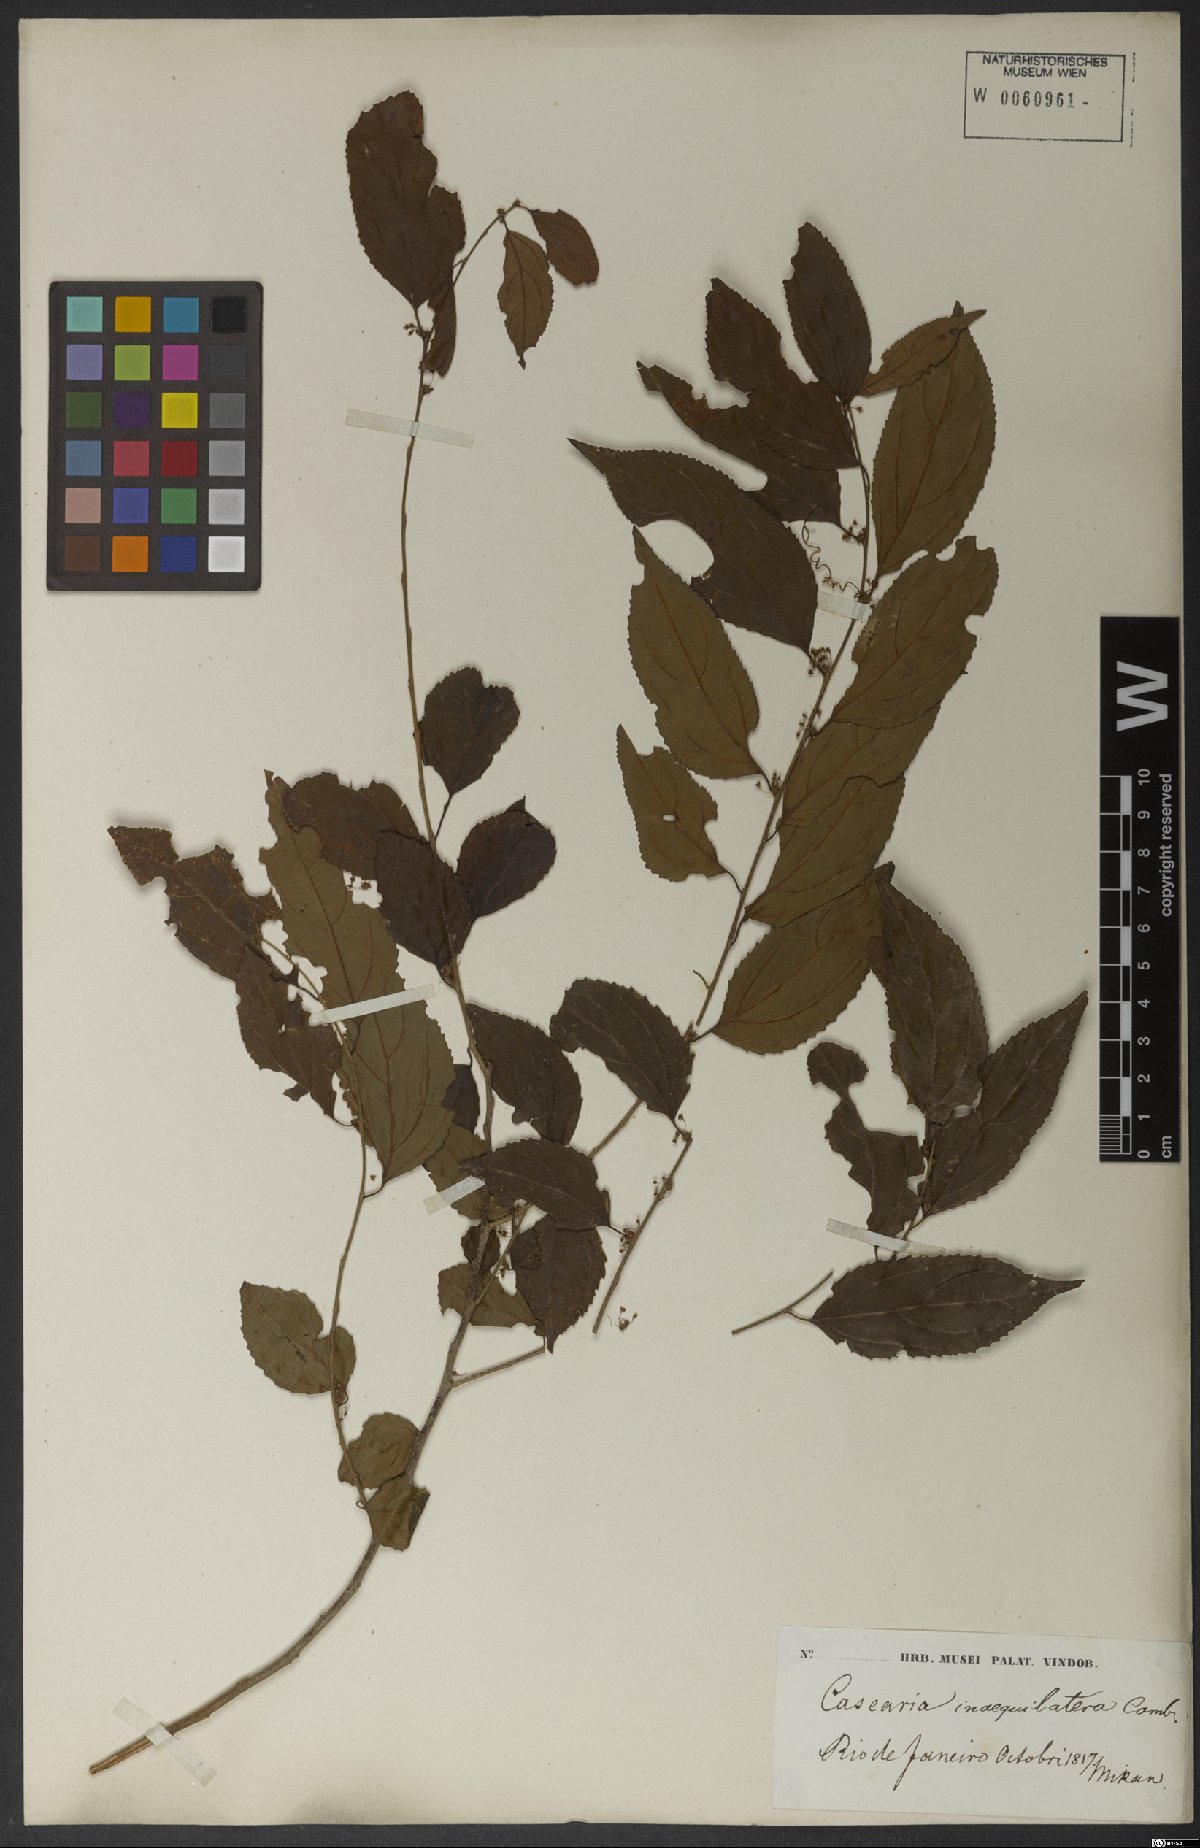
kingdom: Plantae
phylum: Tracheophyta
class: Magnoliopsida
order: Malpighiales
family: Salicaceae
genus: Casearia
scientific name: Casearia obliqua
